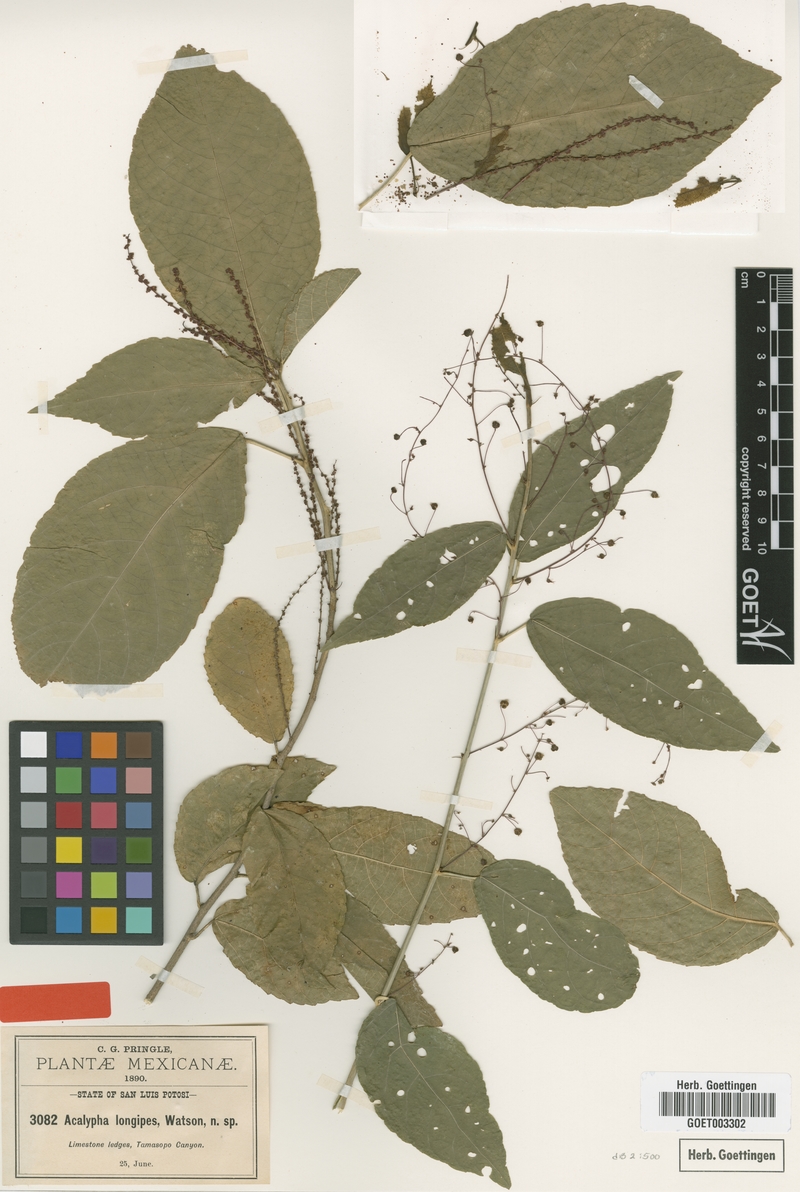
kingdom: Plantae
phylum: Tracheophyta
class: Magnoliopsida
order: Malpighiales
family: Euphorbiaceae
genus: Acalypha
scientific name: Acalypha longipes
